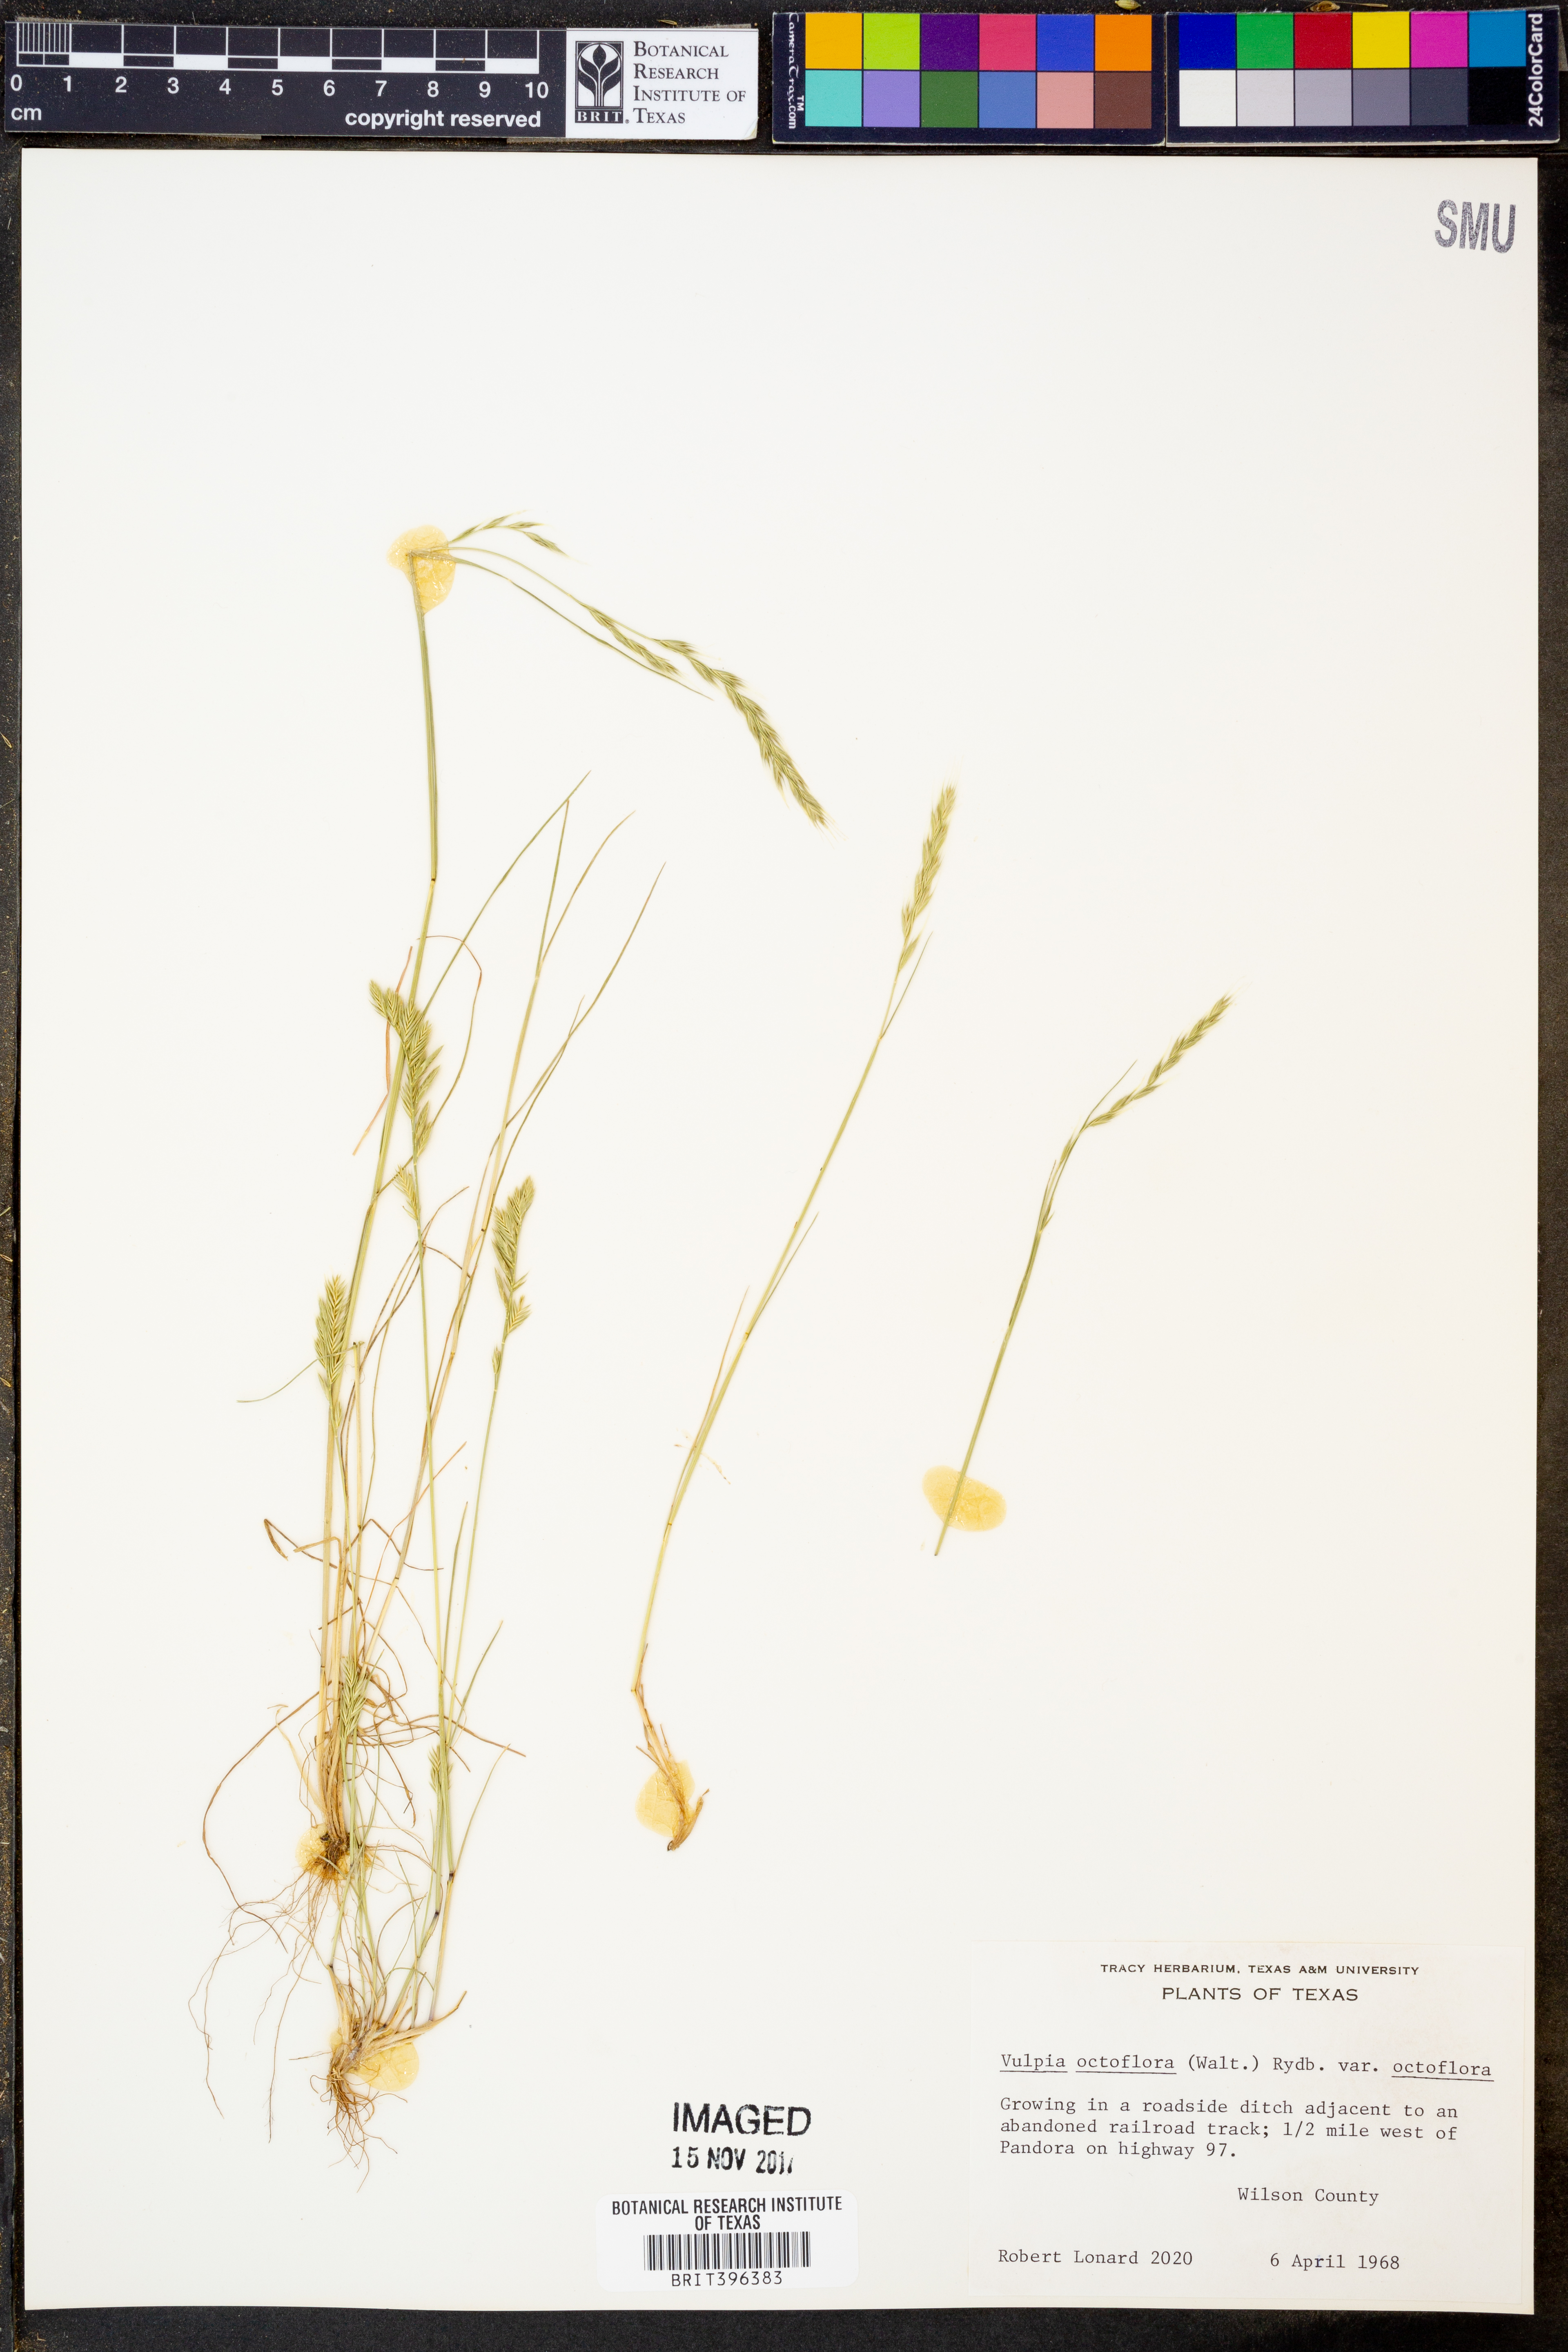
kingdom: Plantae
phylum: Tracheophyta
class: Liliopsida
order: Poales
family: Poaceae
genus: Festuca
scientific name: Festuca octoflora
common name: Sixweeks grass
